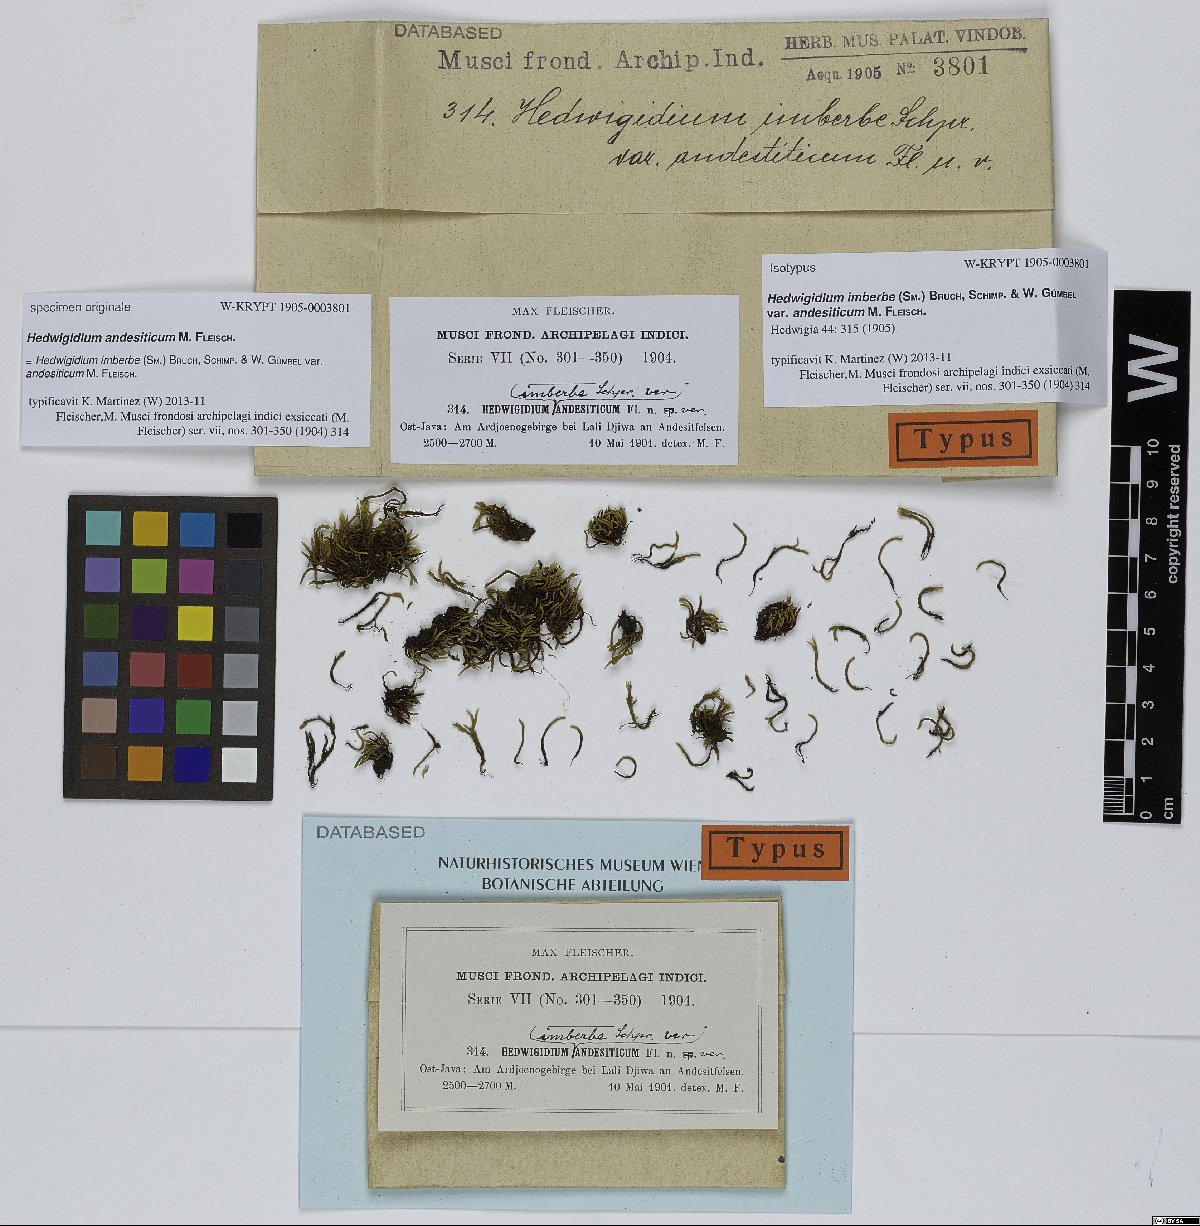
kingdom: Plantae
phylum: Bryophyta
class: Bryopsida
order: Hedwigiales
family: Hedwigiaceae
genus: Hedwigidium
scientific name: Hedwigidium imberbe
